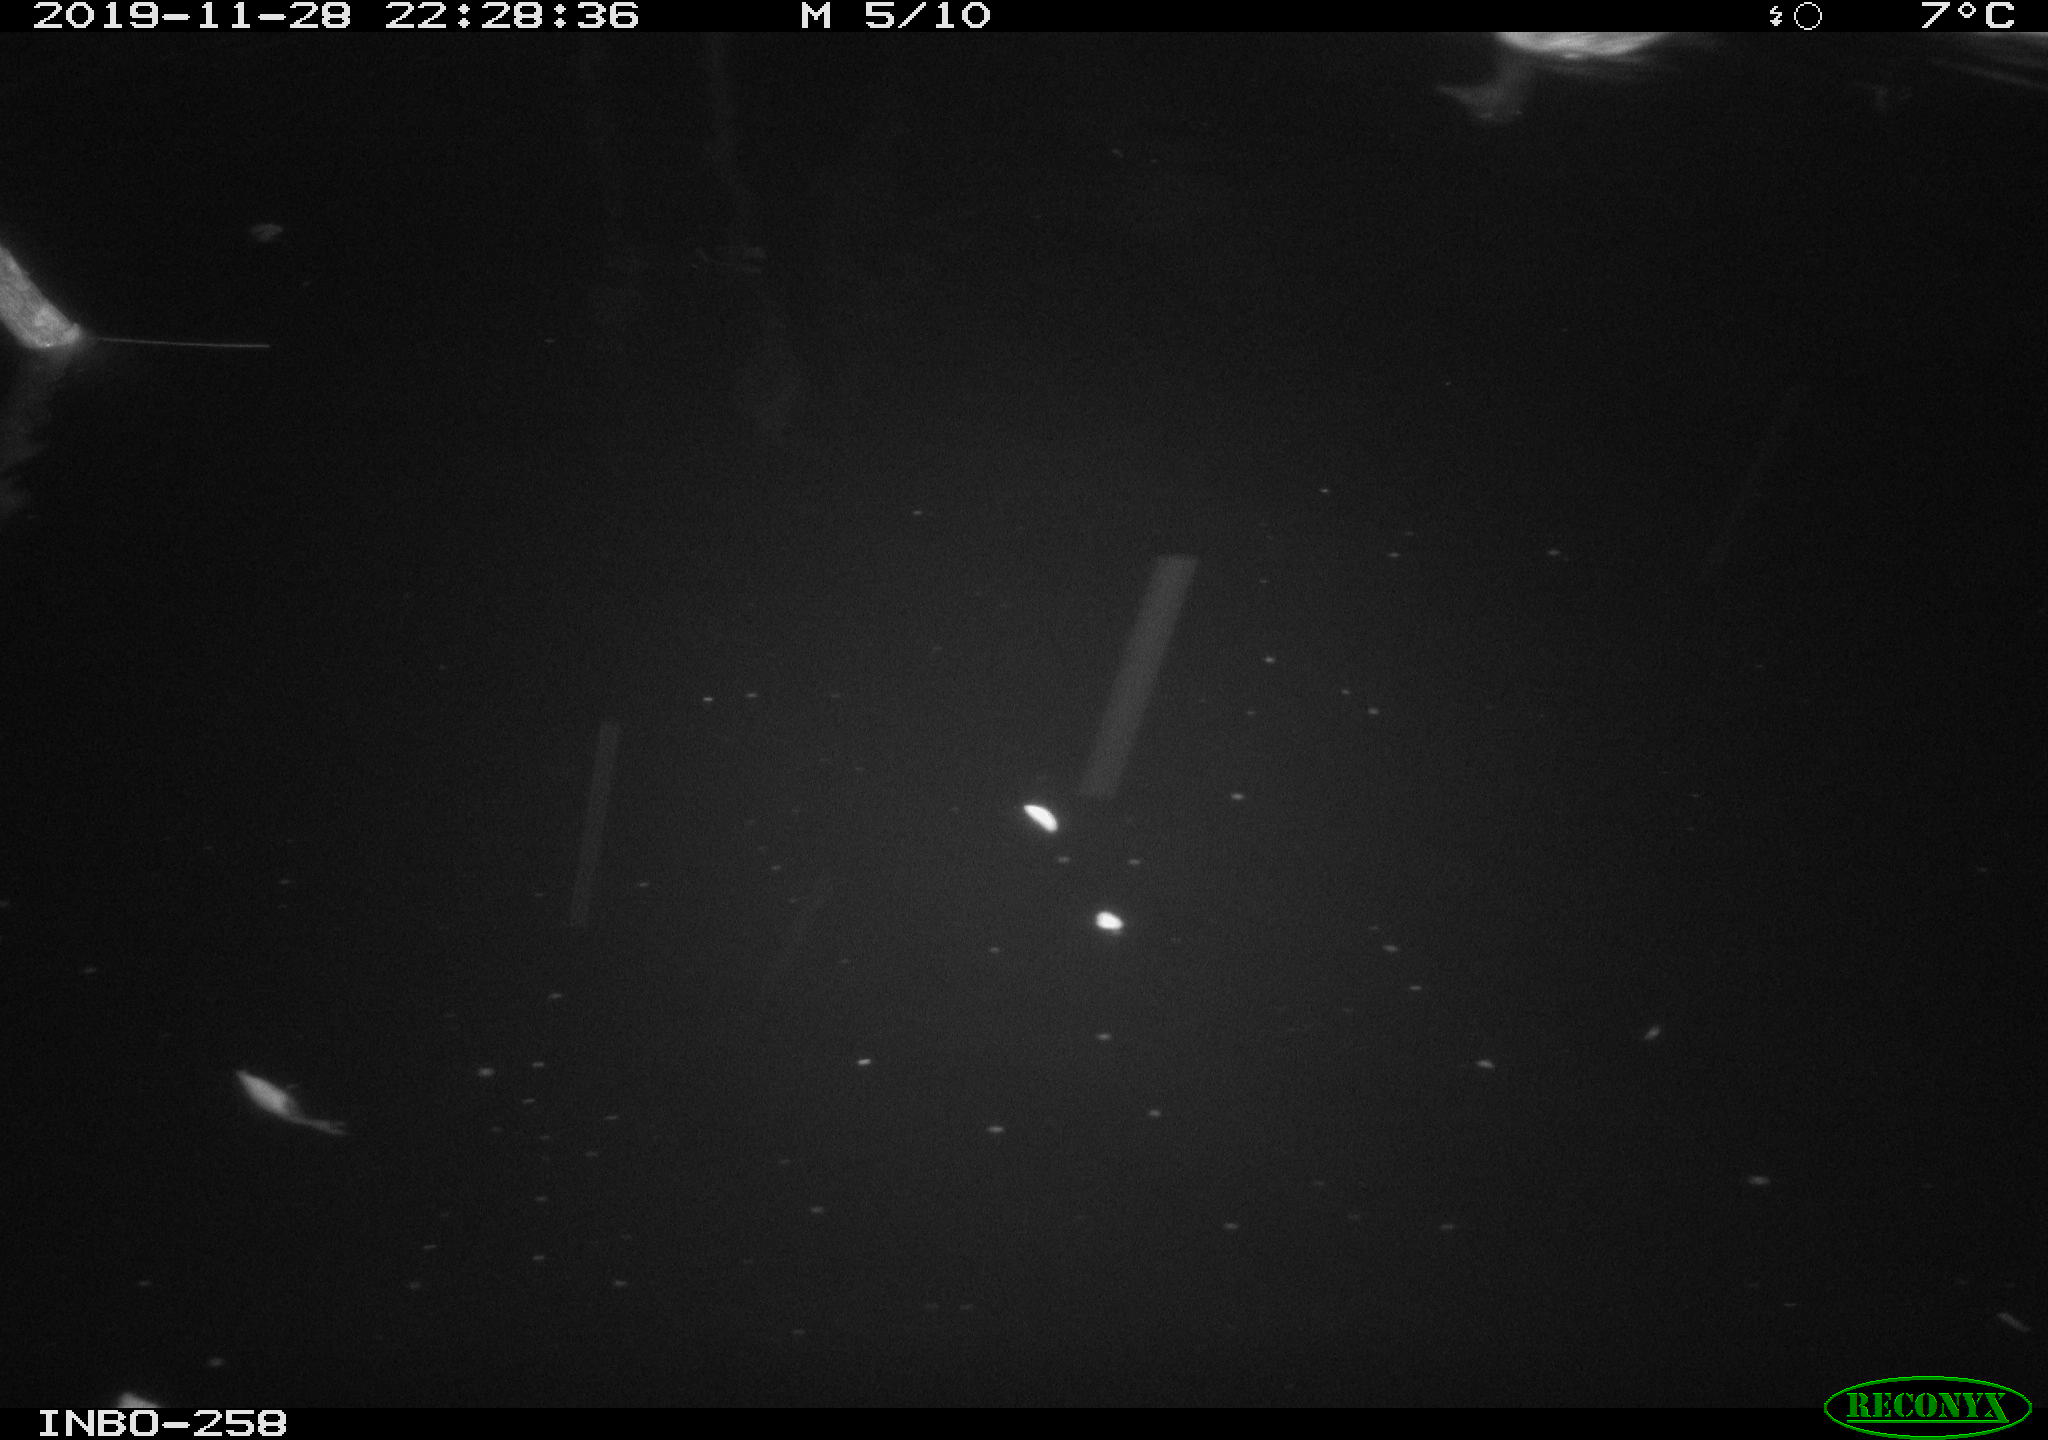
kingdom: Animalia
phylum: Chordata
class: Aves
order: Anseriformes
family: Anatidae
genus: Anas
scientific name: Anas platyrhynchos
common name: Mallard
